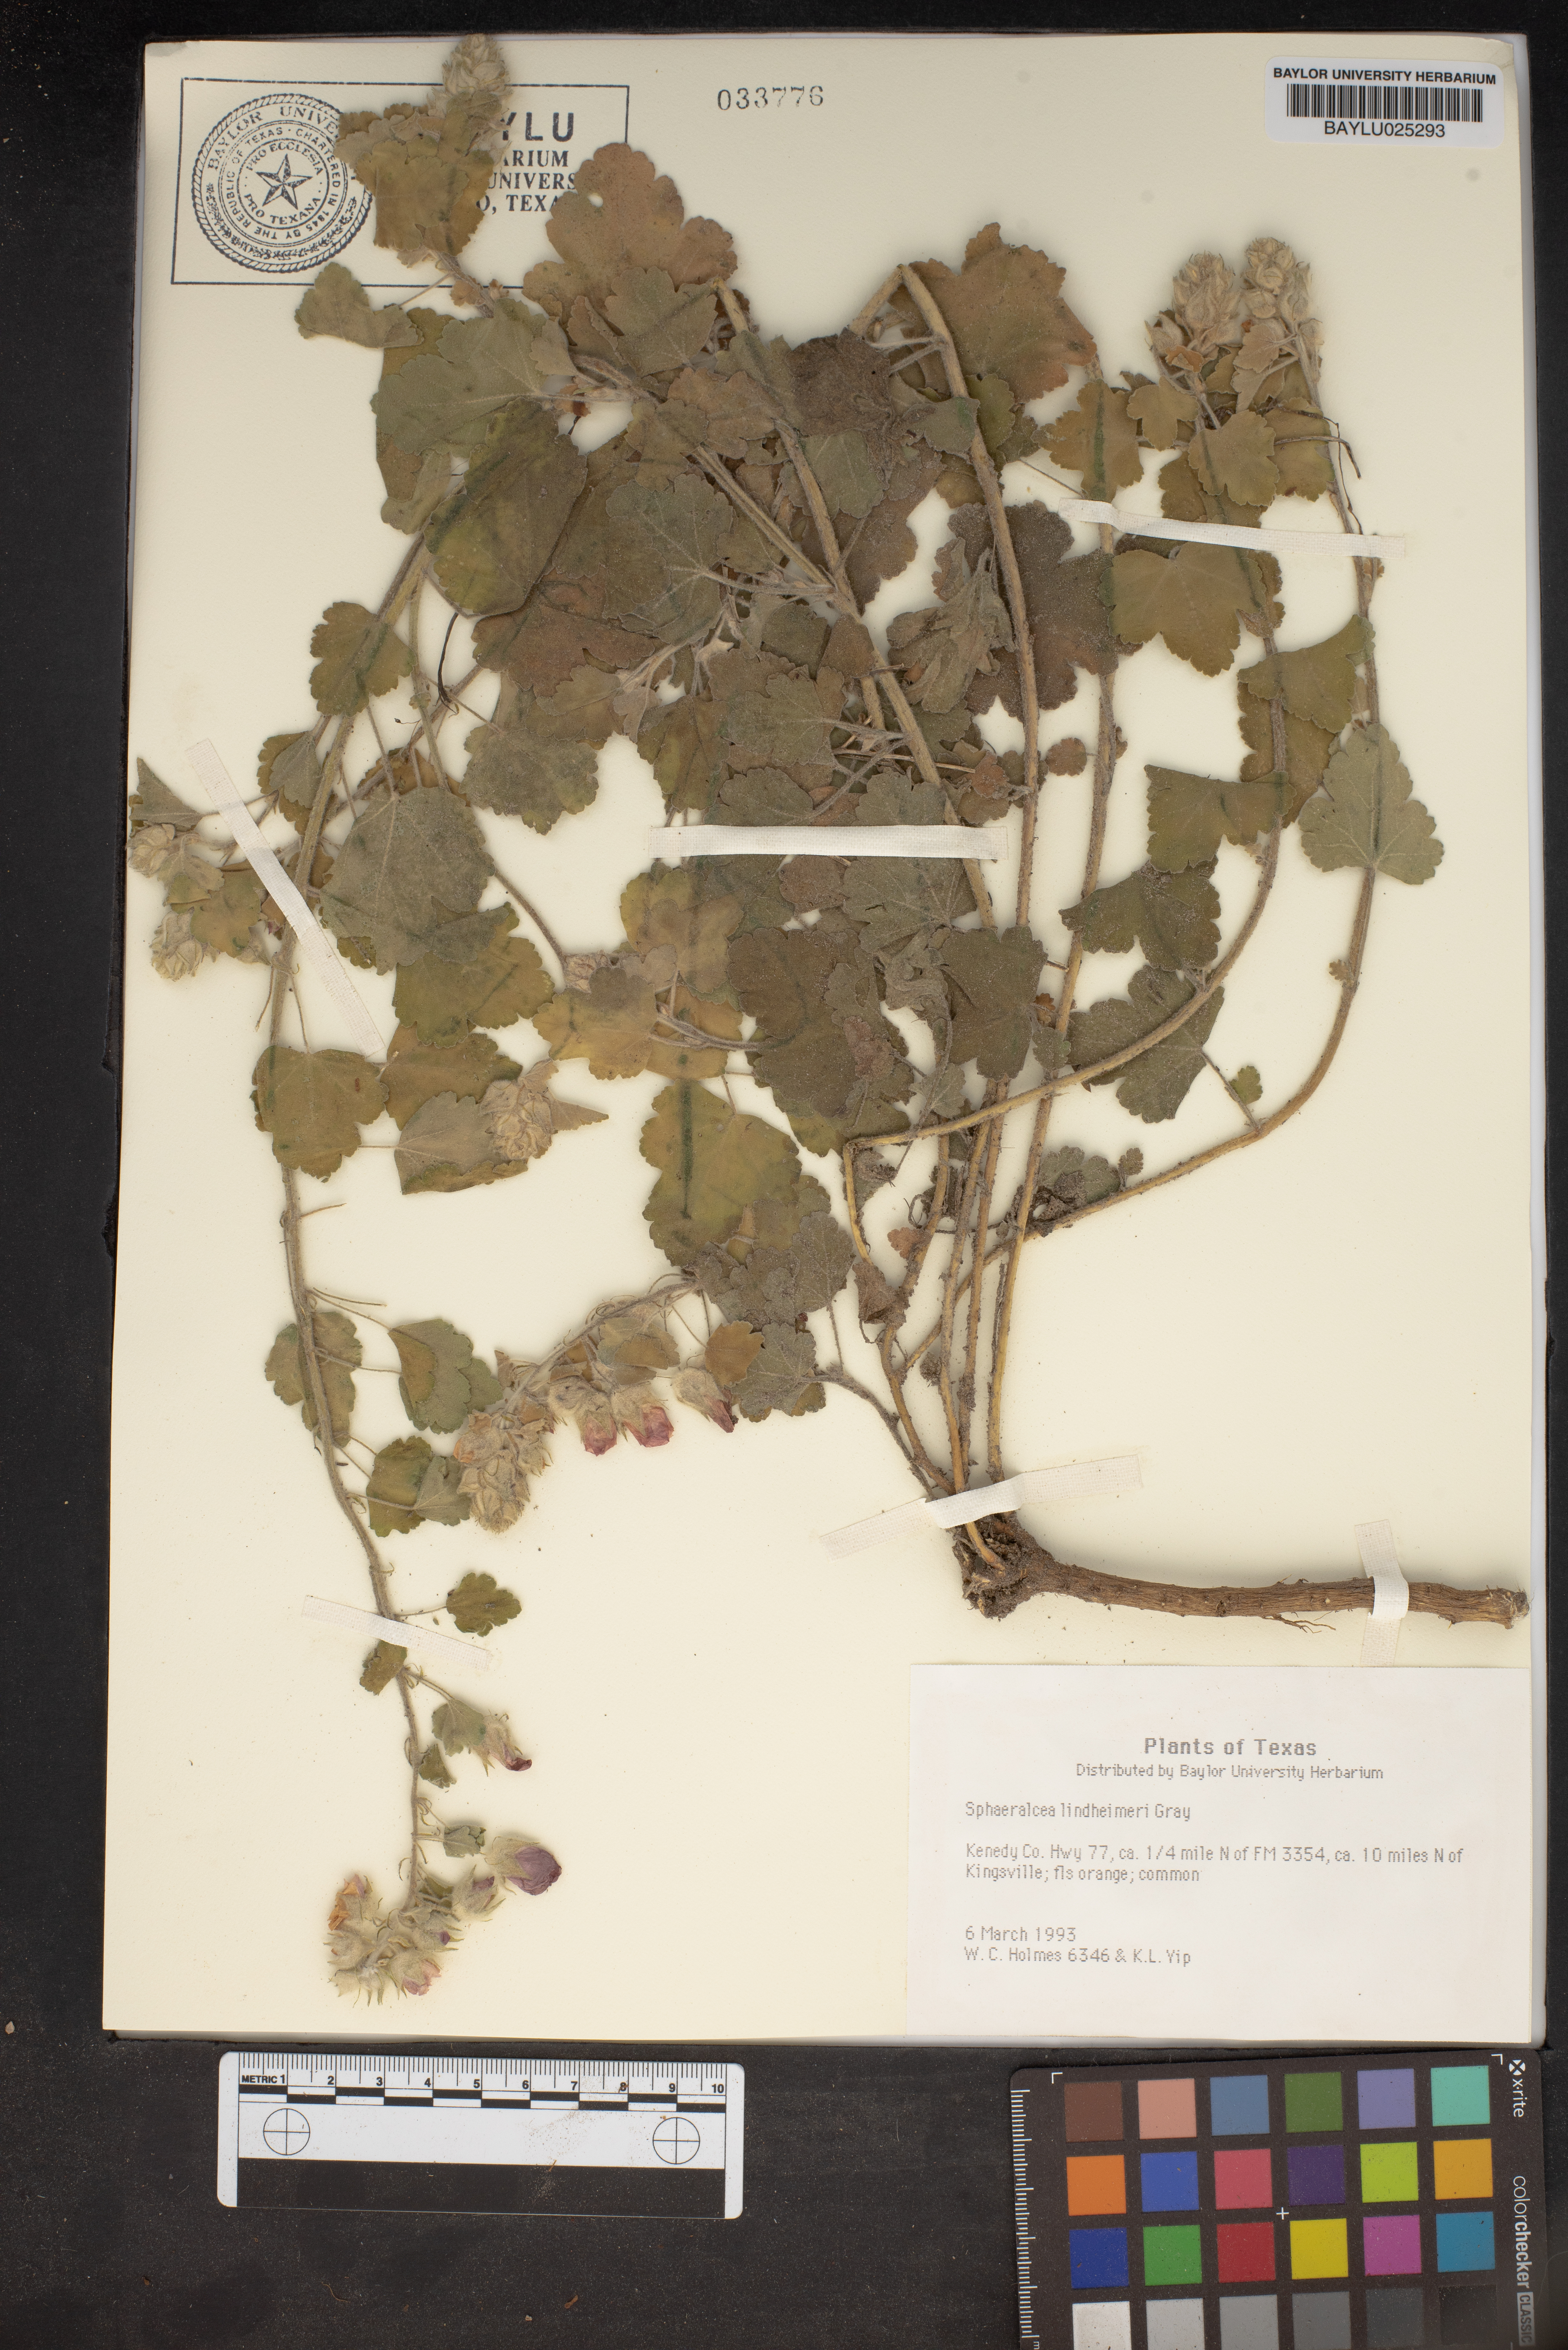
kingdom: Plantae
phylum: Tracheophyta
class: Magnoliopsida
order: Malvales
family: Malvaceae
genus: Sphaeralcea
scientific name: Sphaeralcea lindheimeri
